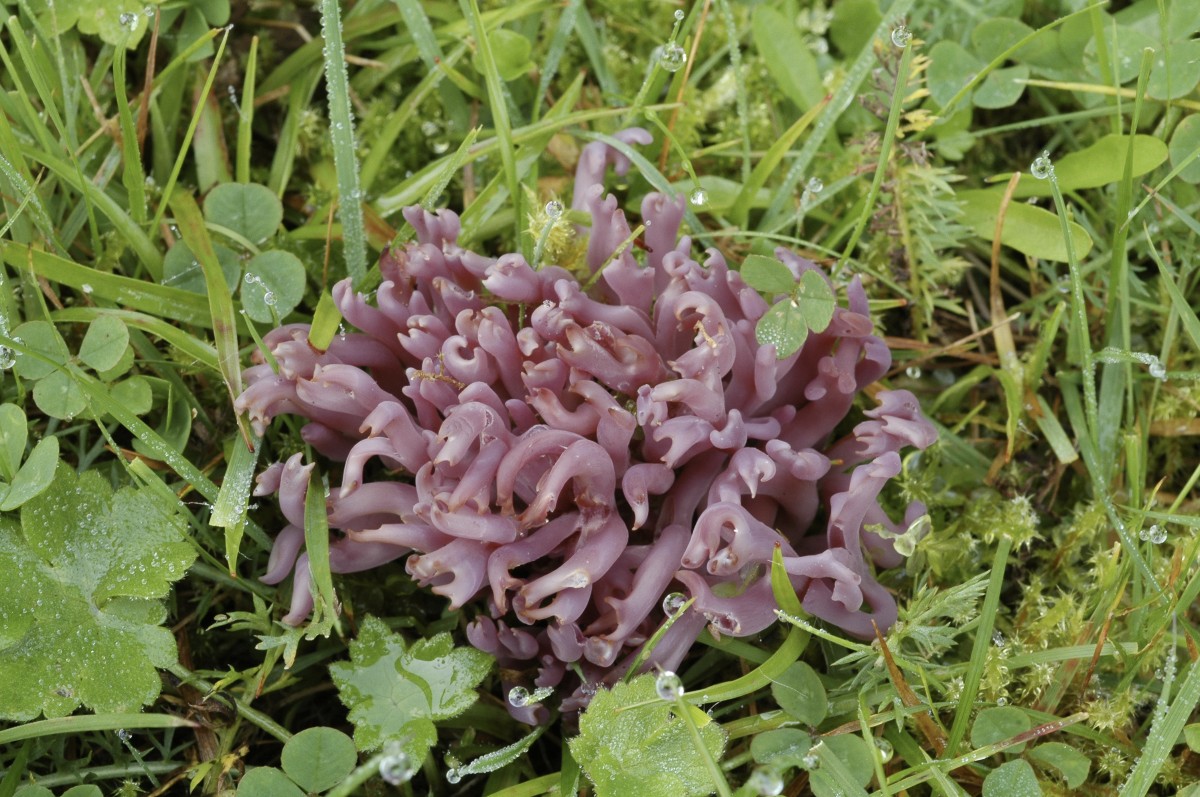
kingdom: Fungi
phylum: Basidiomycota
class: Agaricomycetes
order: Agaricales
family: Clavariaceae
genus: Clavaria
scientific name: Clavaria zollingeri
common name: purpur-køllesvamp
